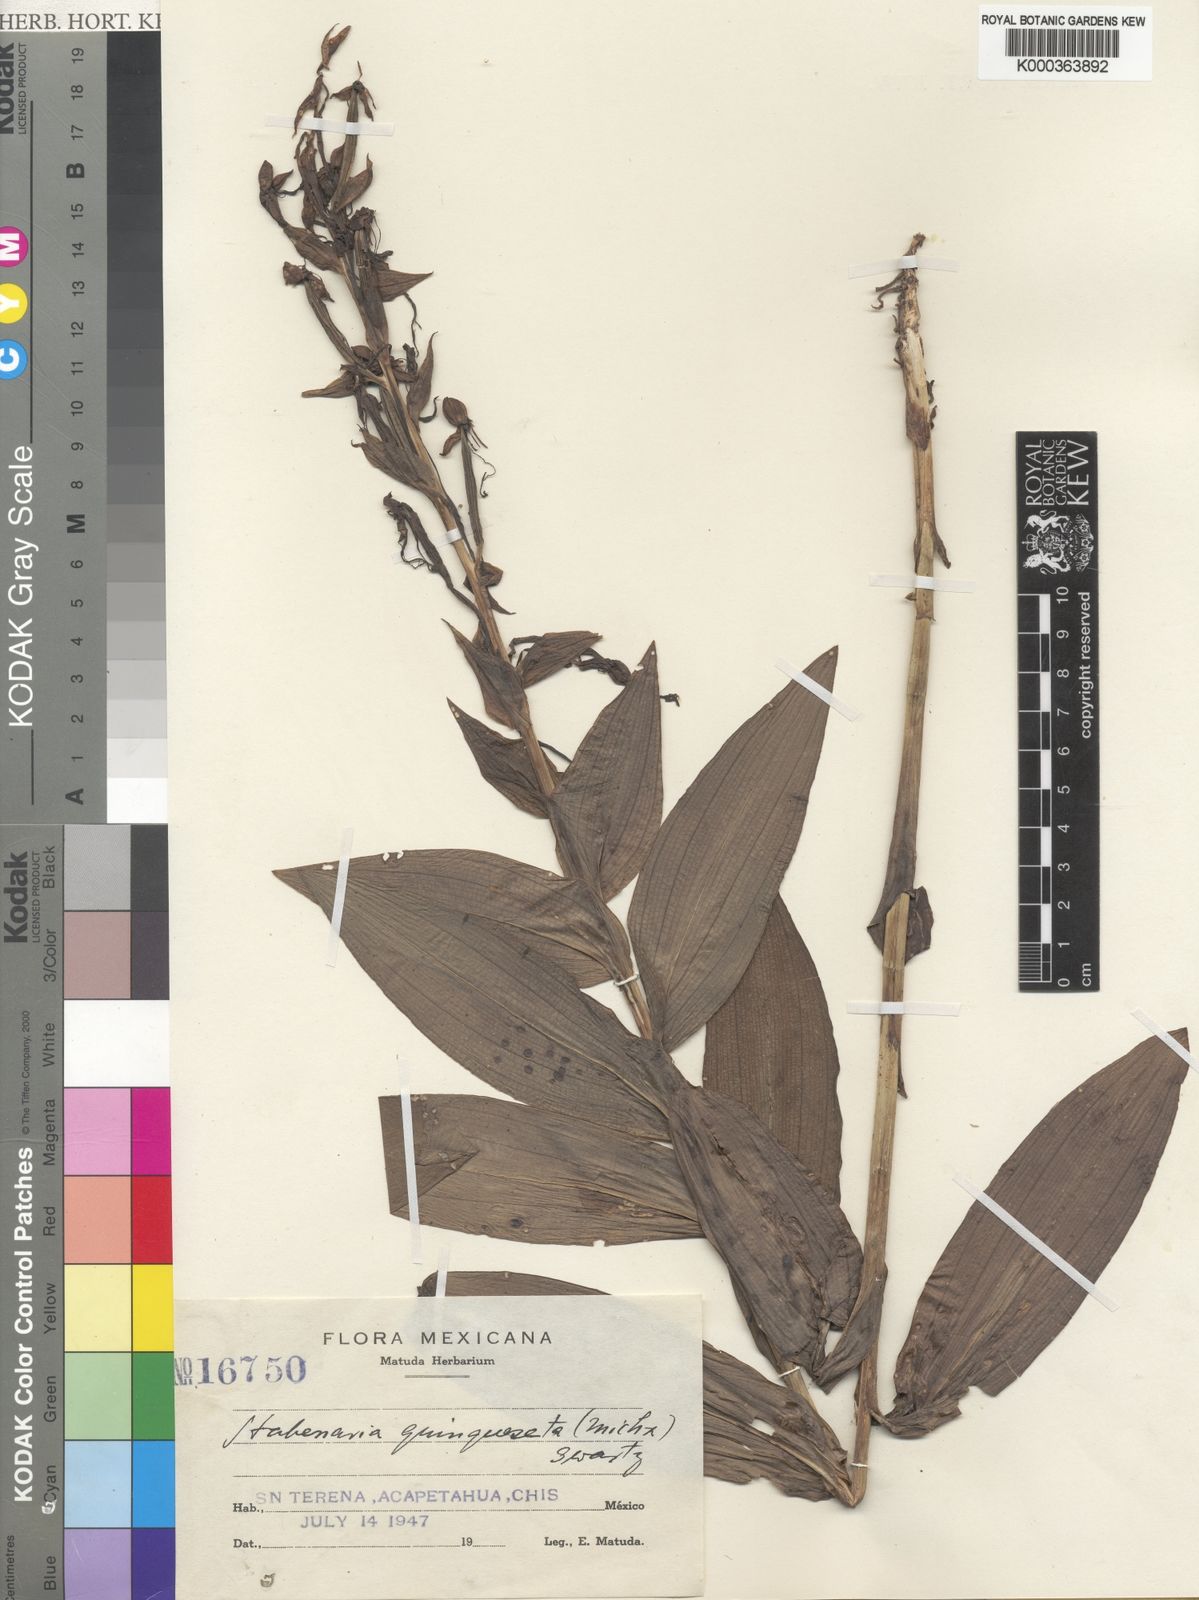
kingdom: Plantae
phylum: Tracheophyta
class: Liliopsida
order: Asparagales
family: Orchidaceae
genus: Habenaria
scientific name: Habenaria
